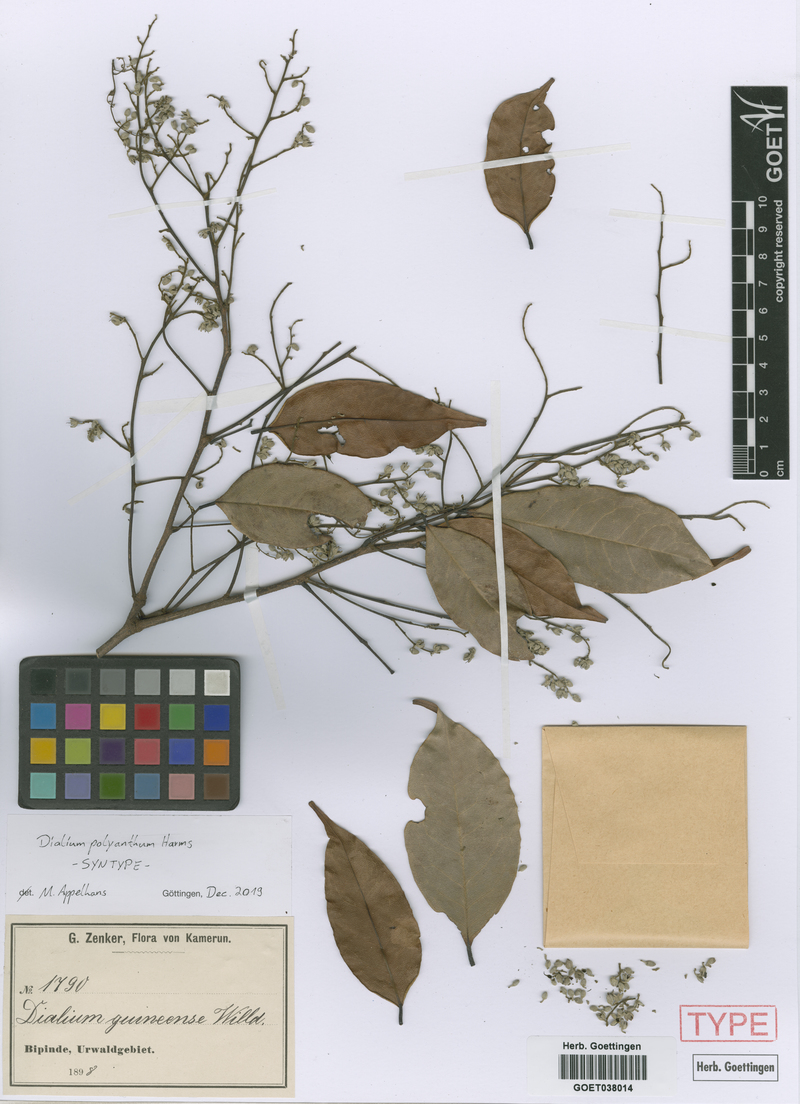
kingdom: Plantae
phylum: Tracheophyta
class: Magnoliopsida
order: Fabales
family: Fabaceae
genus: Dialium
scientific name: Dialium guineense
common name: Sierra leone-tamarind
